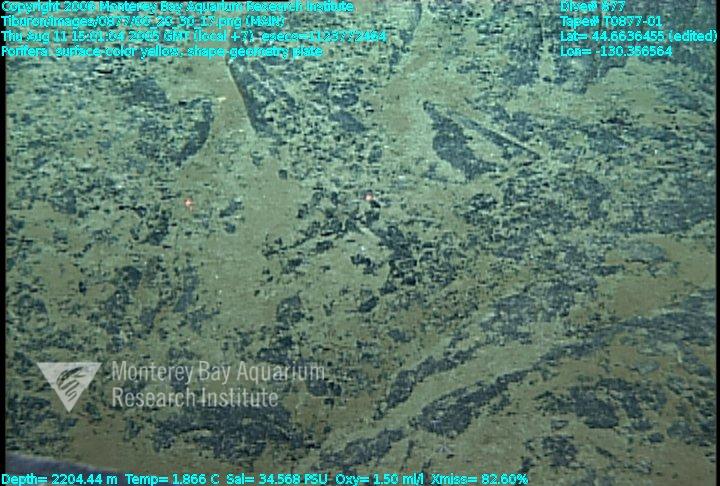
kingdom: Animalia
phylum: Porifera
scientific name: Porifera
